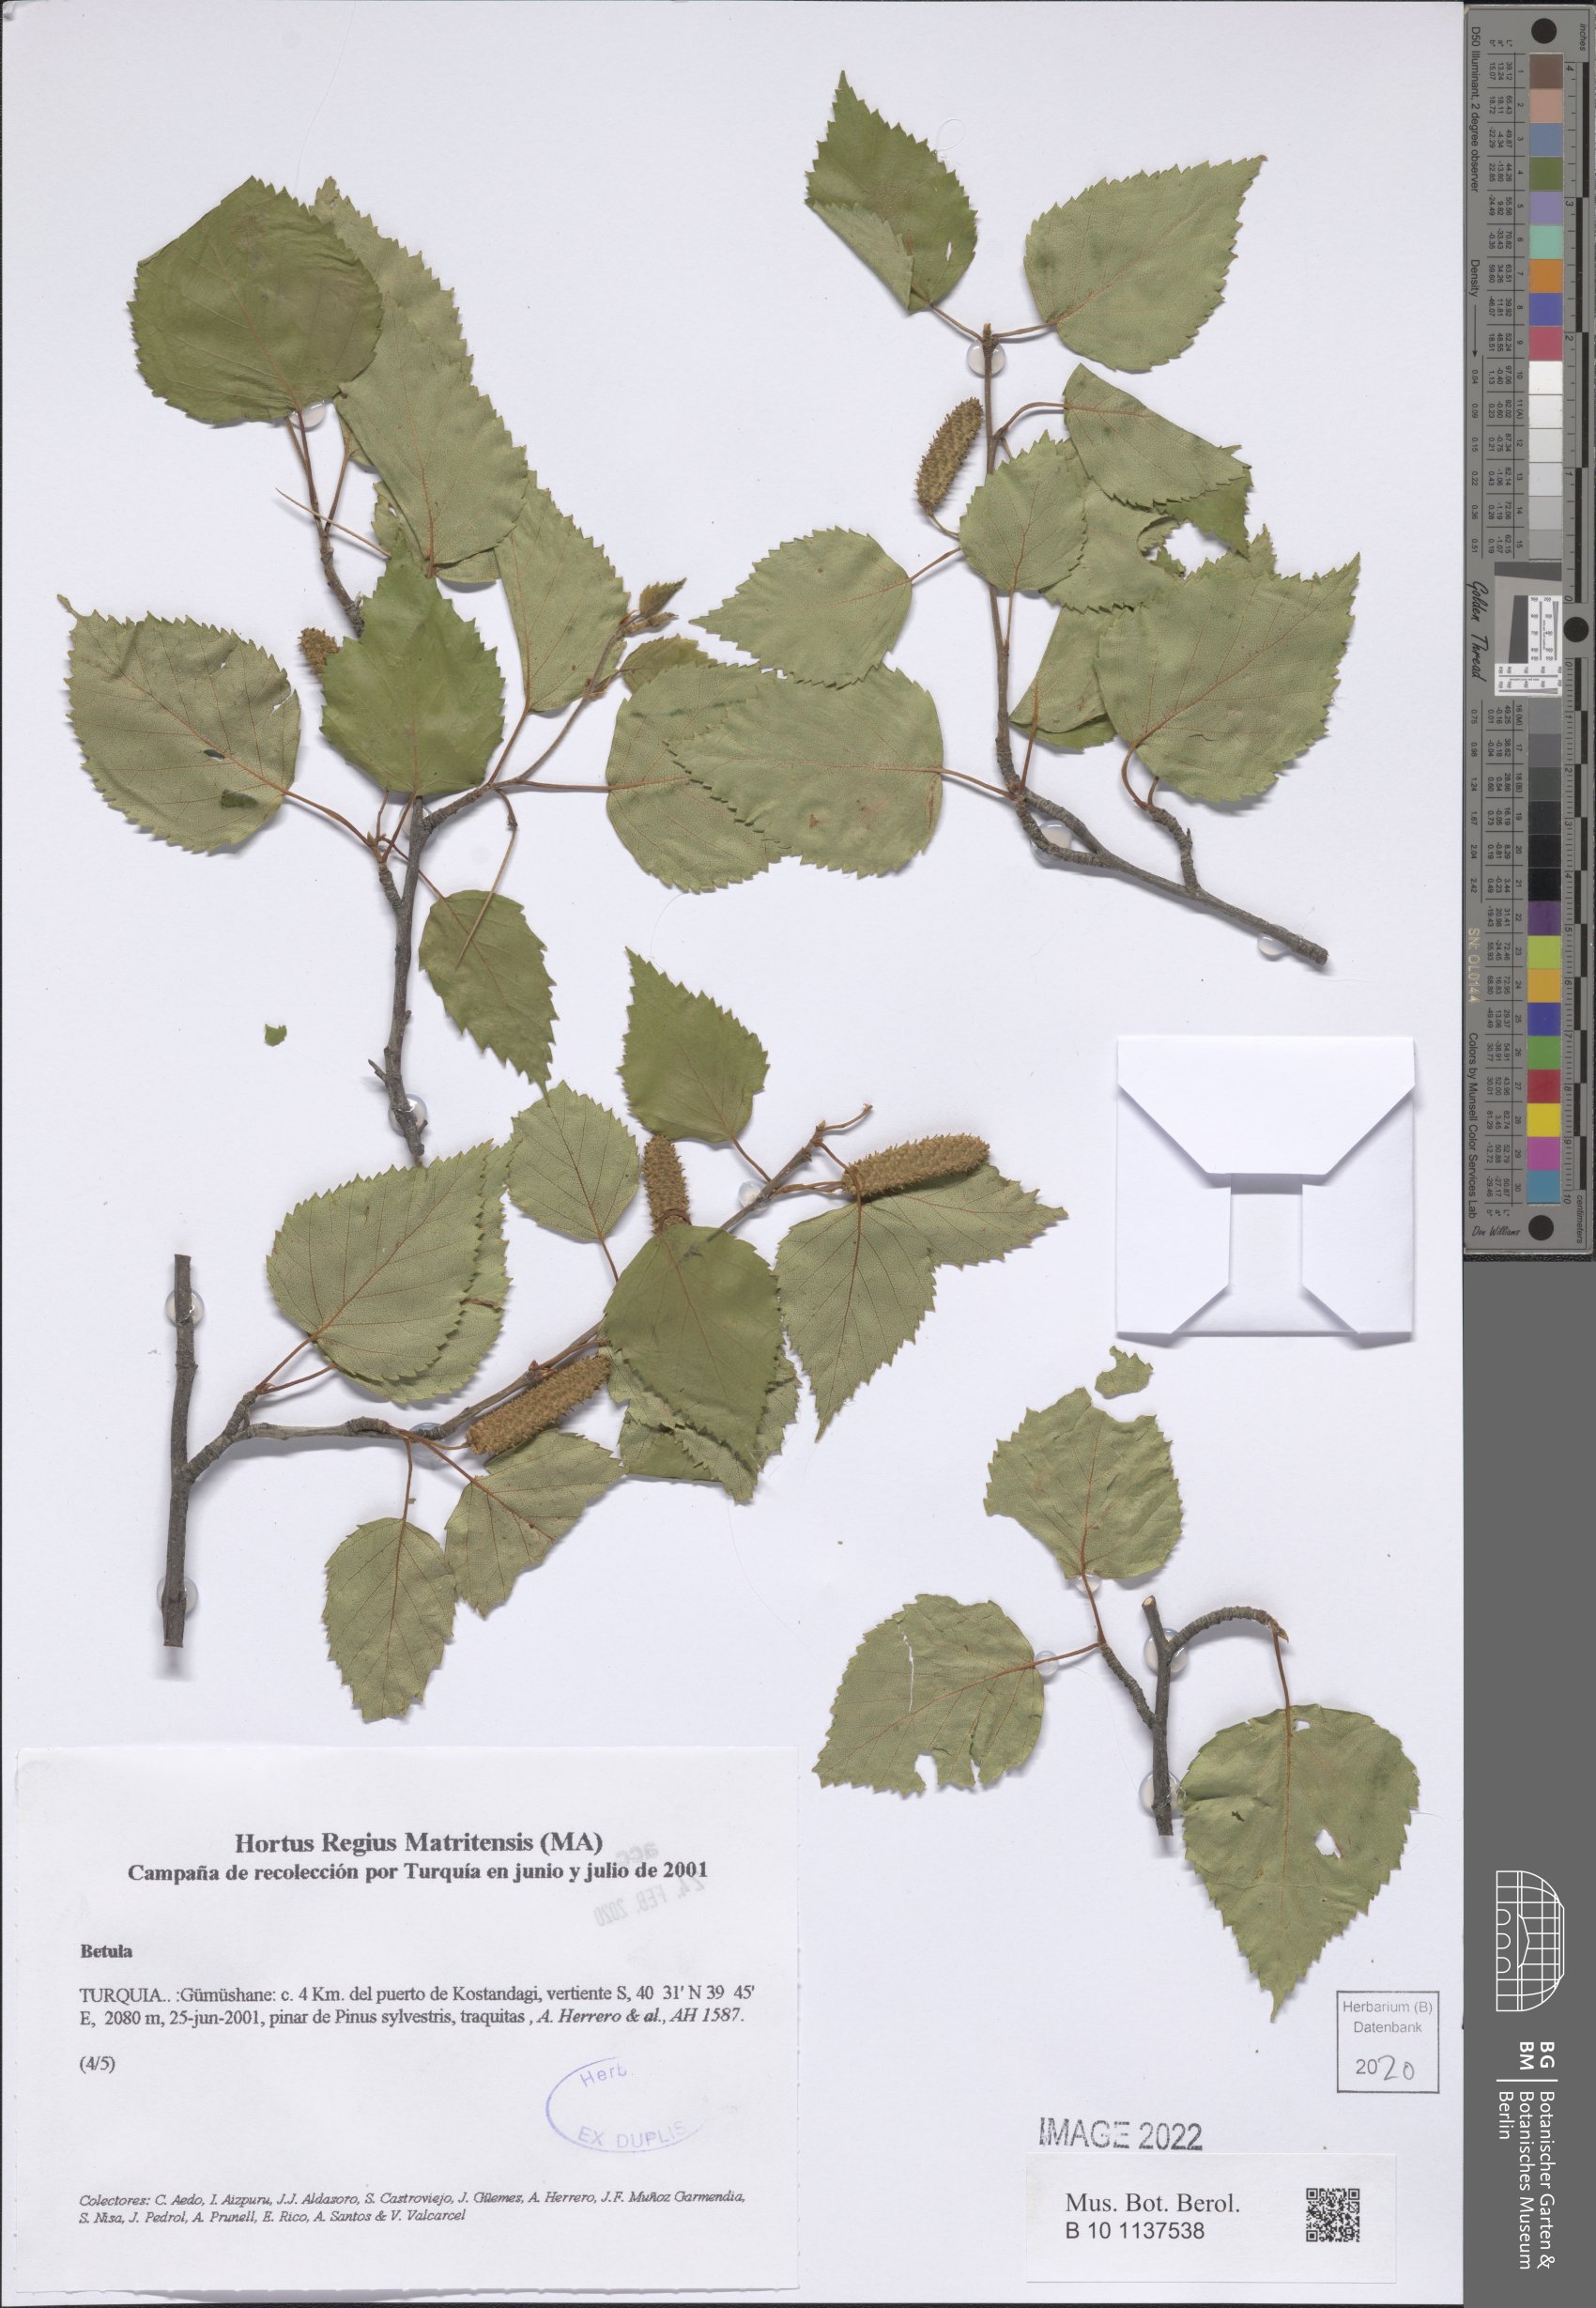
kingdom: Plantae
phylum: Tracheophyta
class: Magnoliopsida
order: Fagales
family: Betulaceae
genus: Betula
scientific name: Betula
